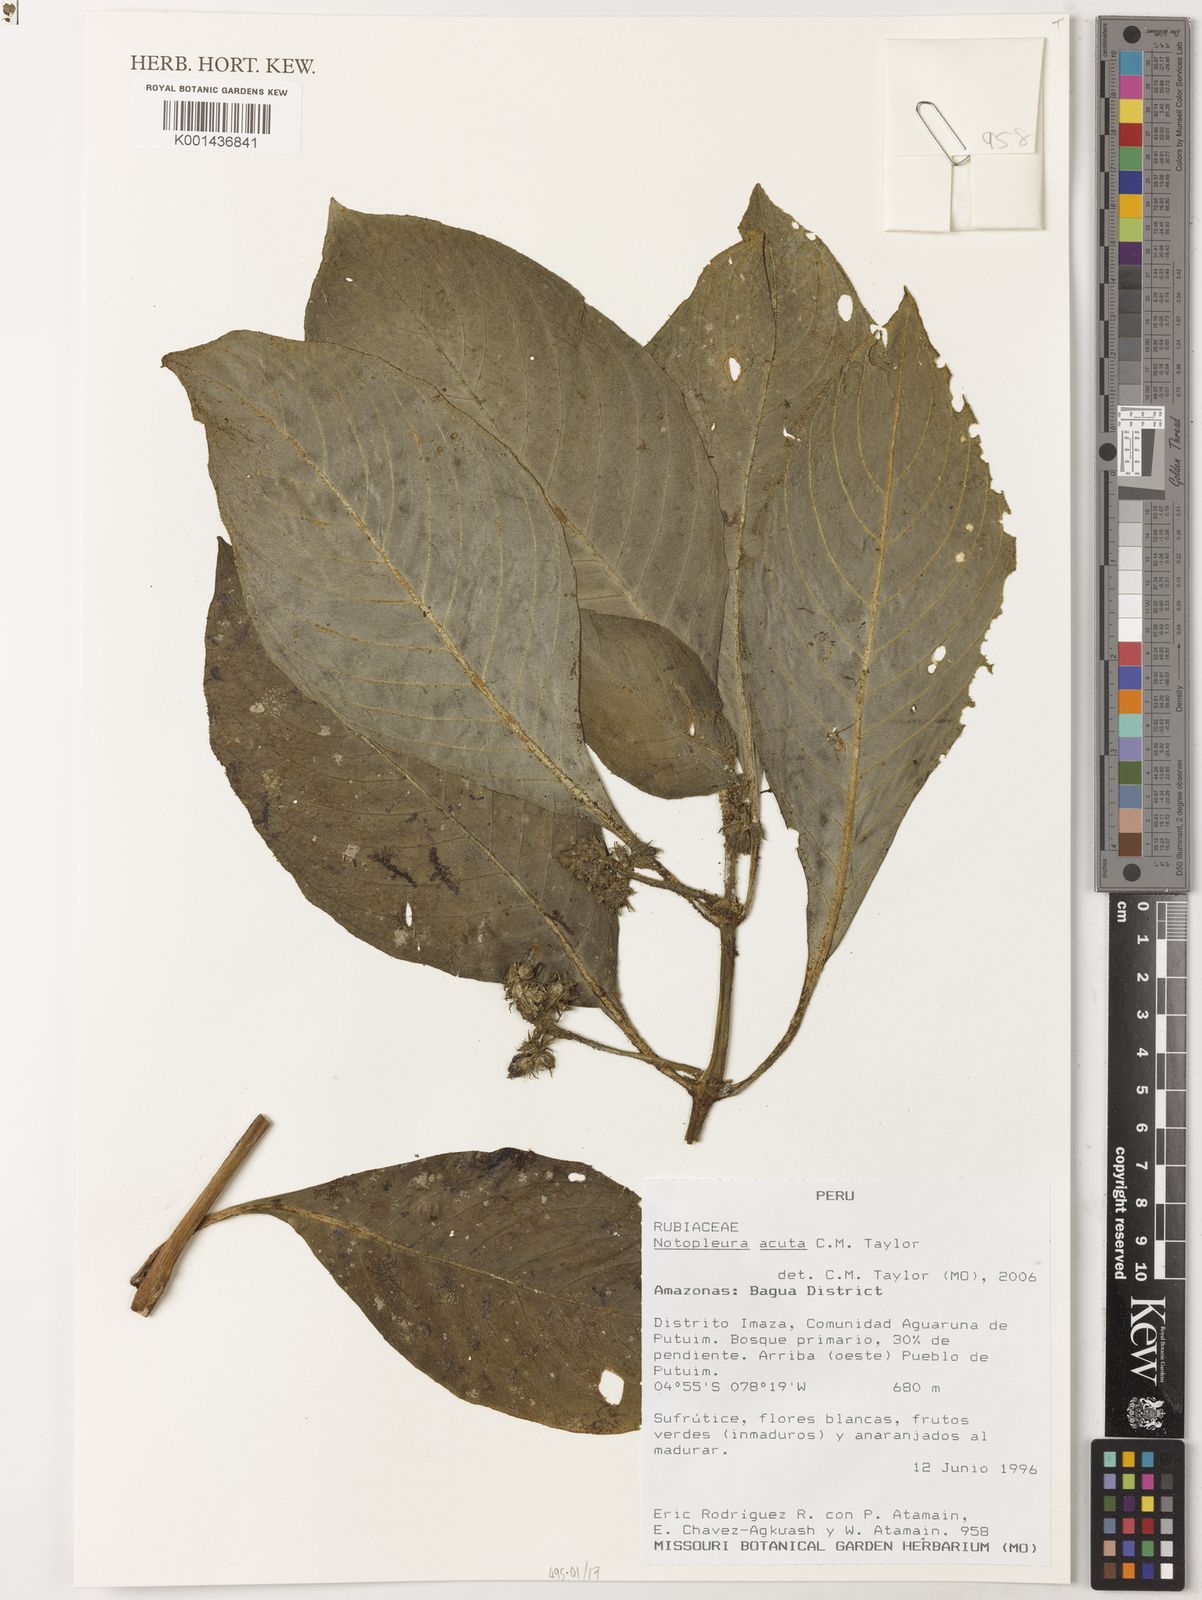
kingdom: Plantae
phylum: Tracheophyta
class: Magnoliopsida
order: Gentianales
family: Rubiaceae
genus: Notopleura
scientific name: Notopleura acuta
